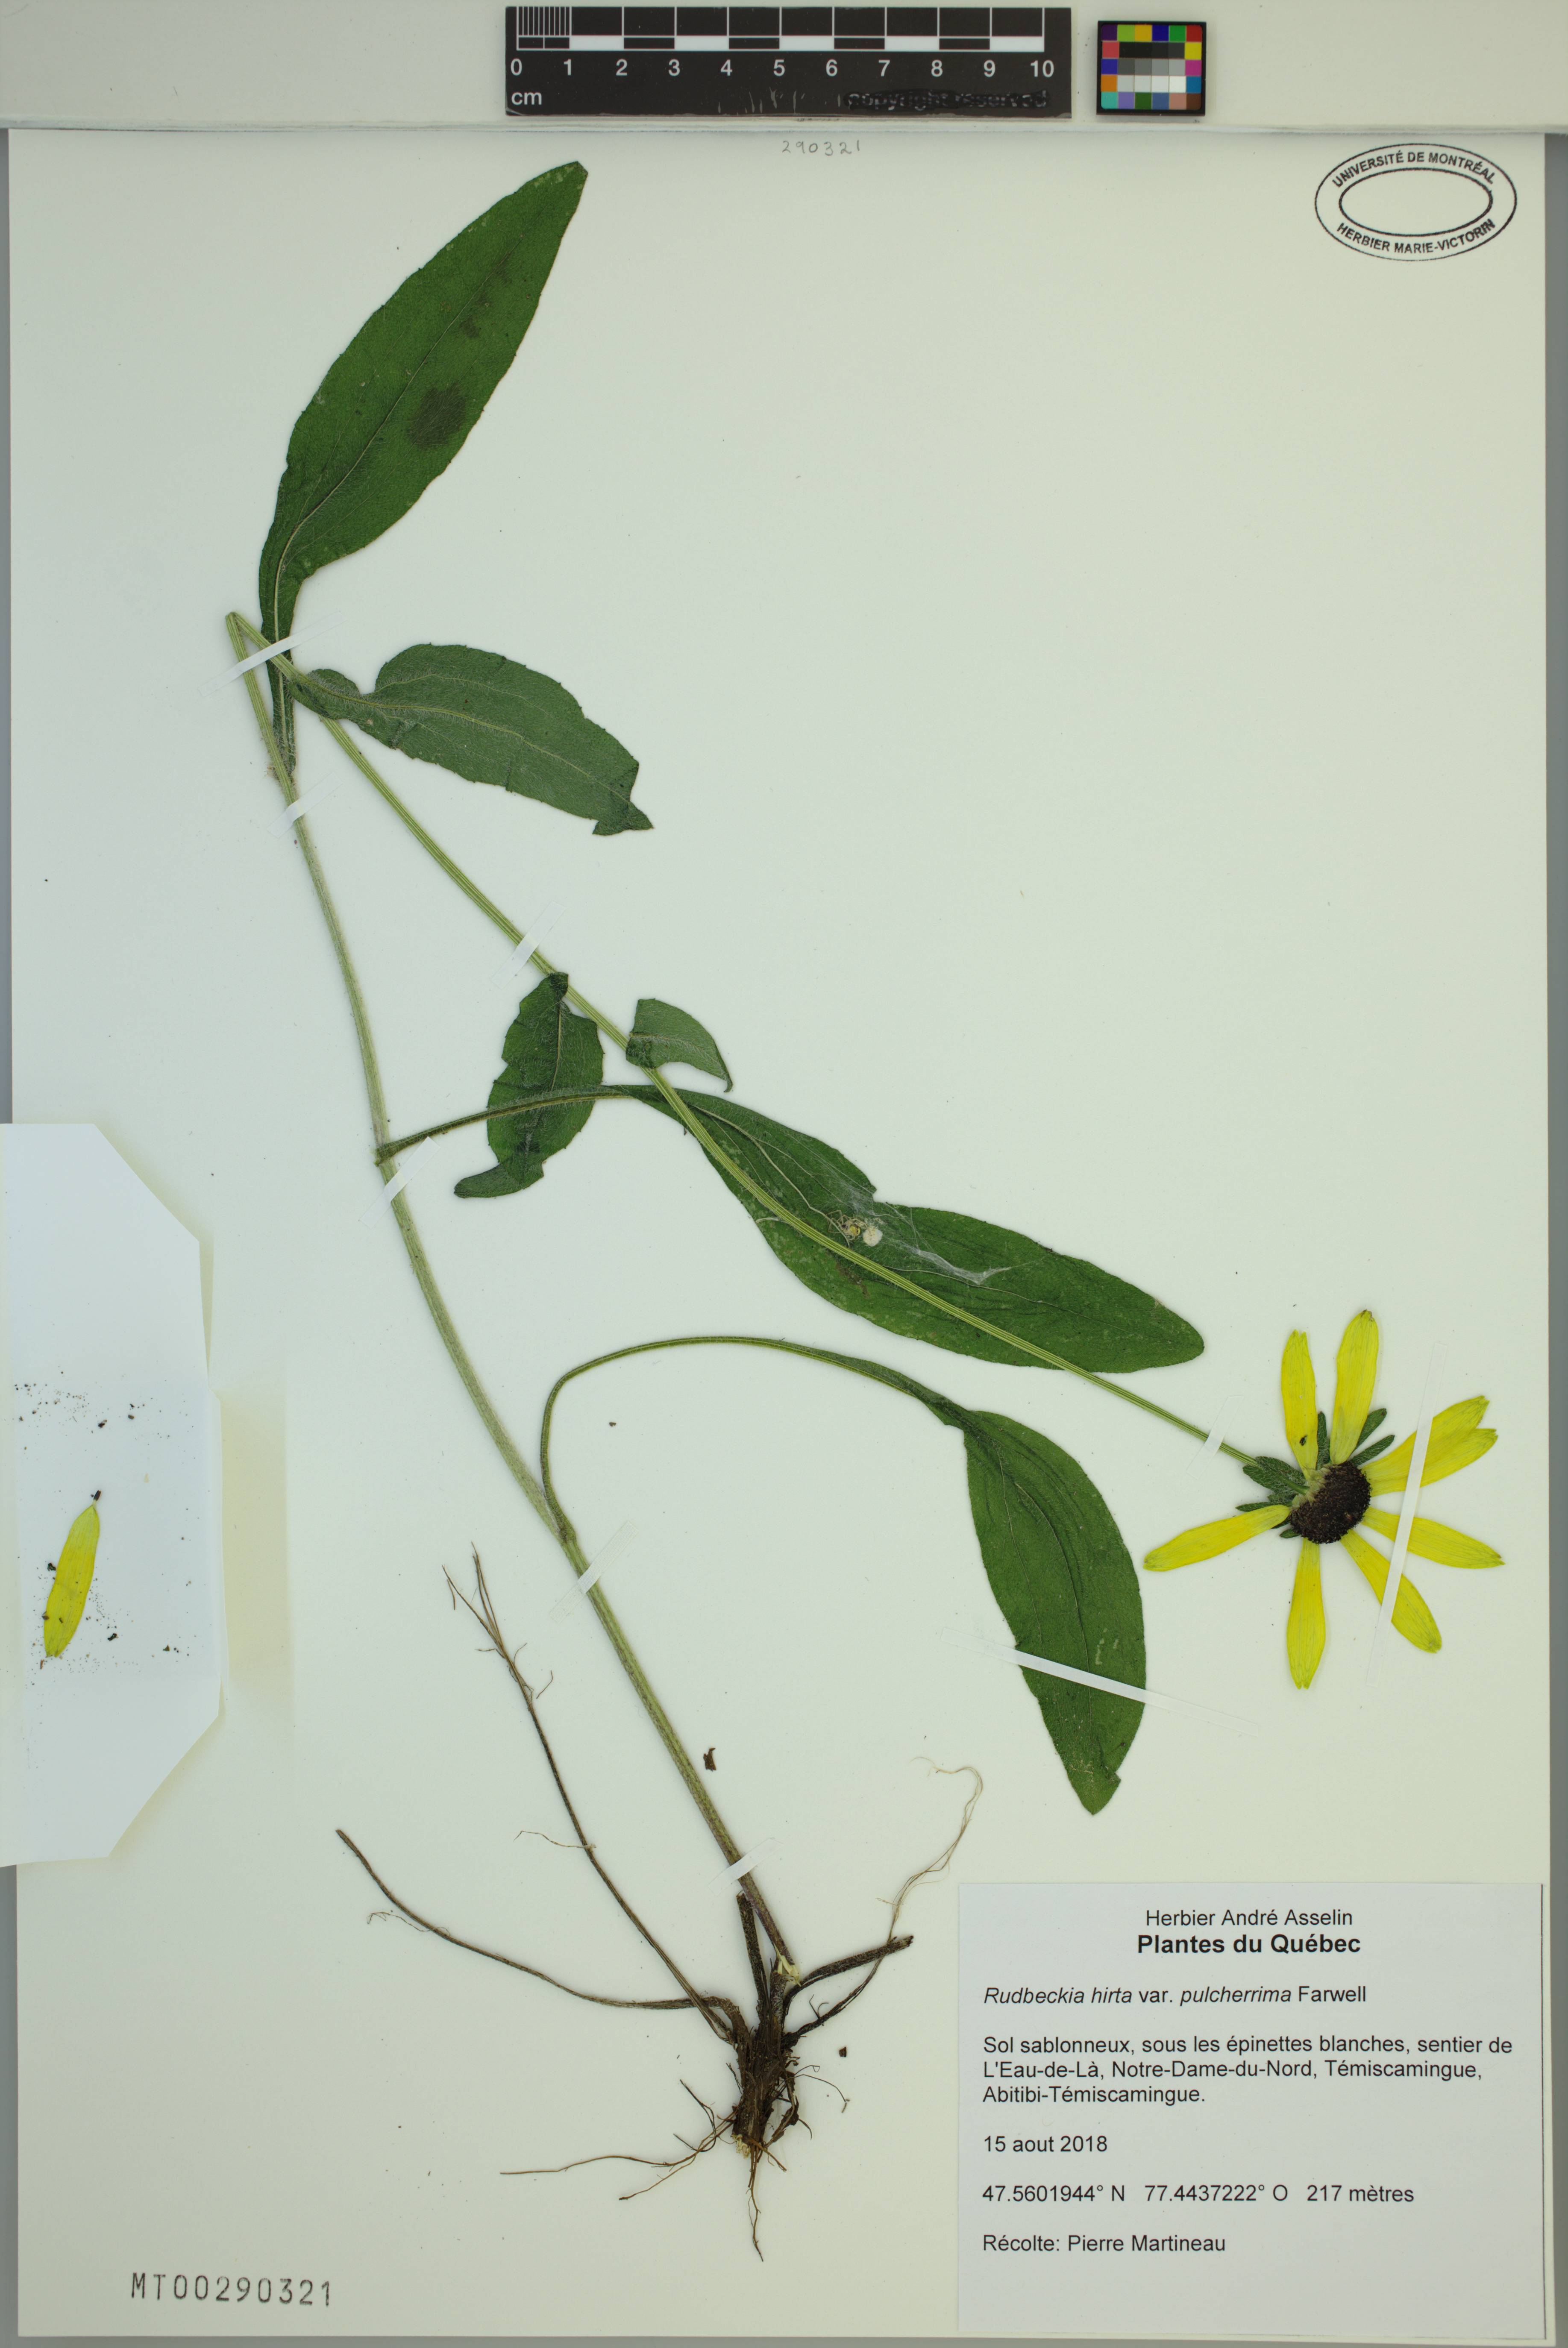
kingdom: Plantae
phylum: Tracheophyta
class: Magnoliopsida
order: Asterales
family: Asteraceae
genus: Rudbeckia
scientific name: Rudbeckia hirta
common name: Black-eyed-susan
